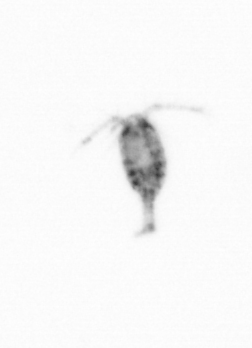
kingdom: Animalia
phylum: Arthropoda
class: Copepoda
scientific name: Copepoda
